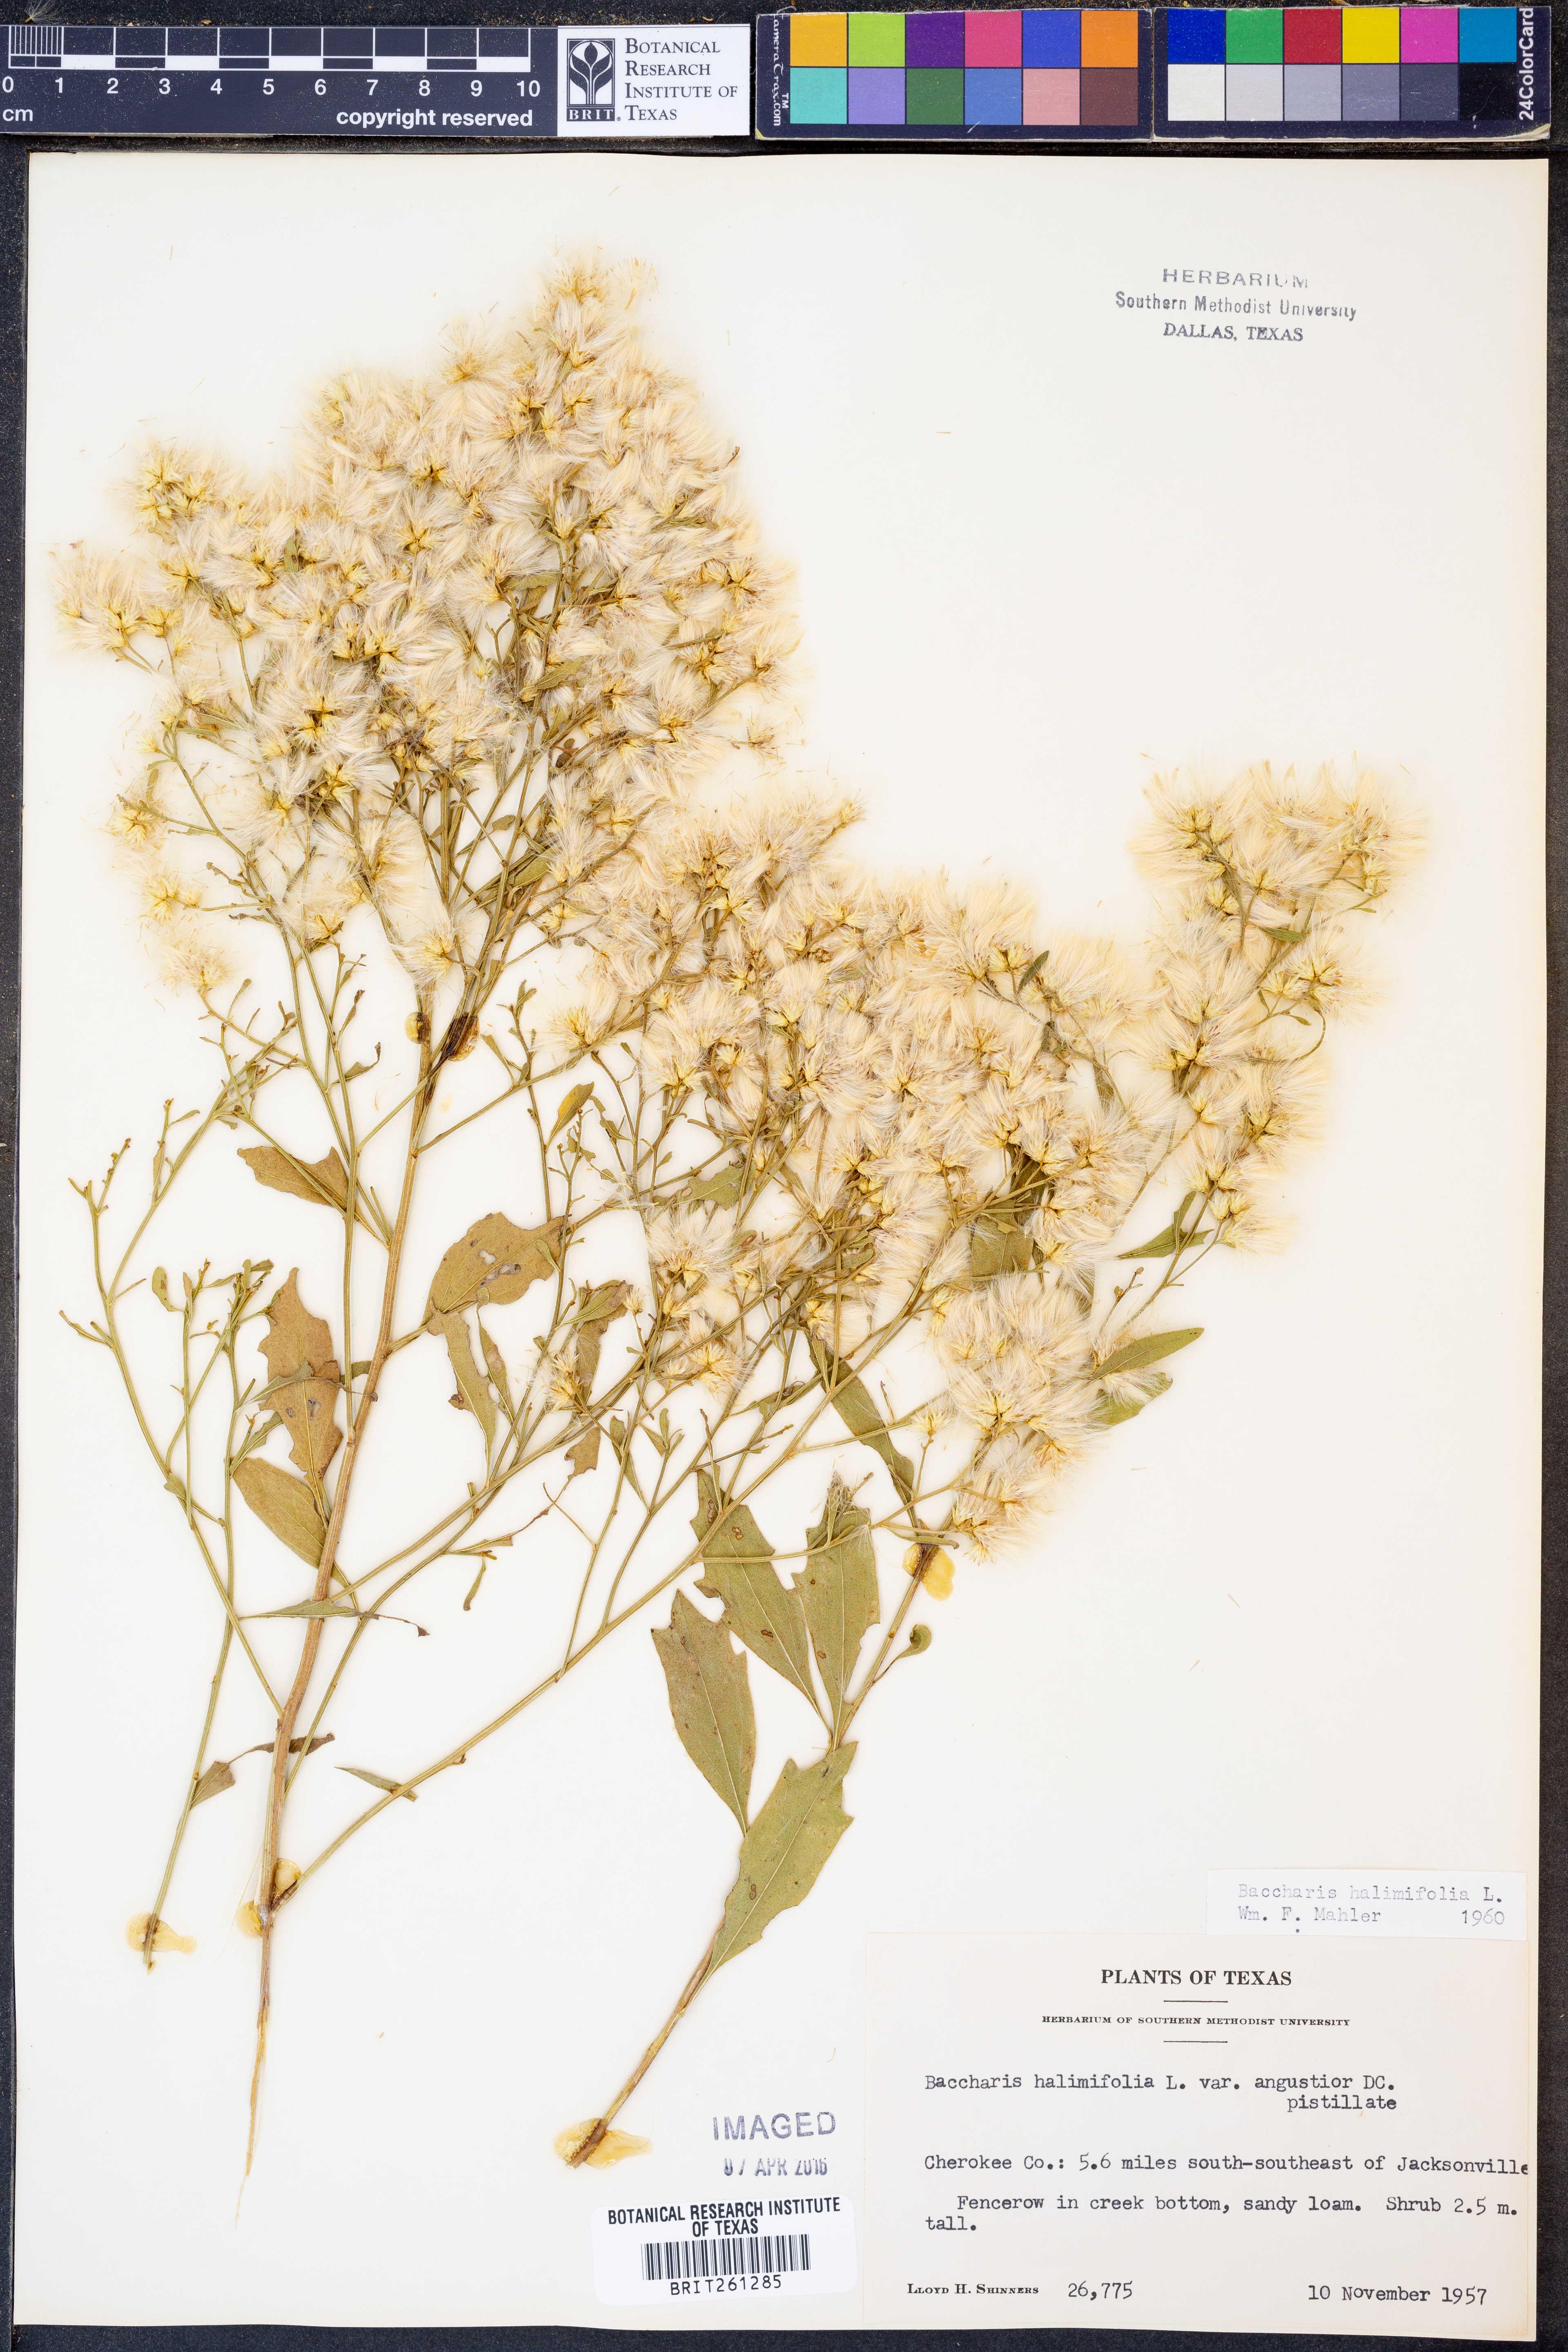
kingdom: Plantae
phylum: Tracheophyta
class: Magnoliopsida
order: Asterales
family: Asteraceae
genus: Nidorella
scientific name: Nidorella ivifolia
